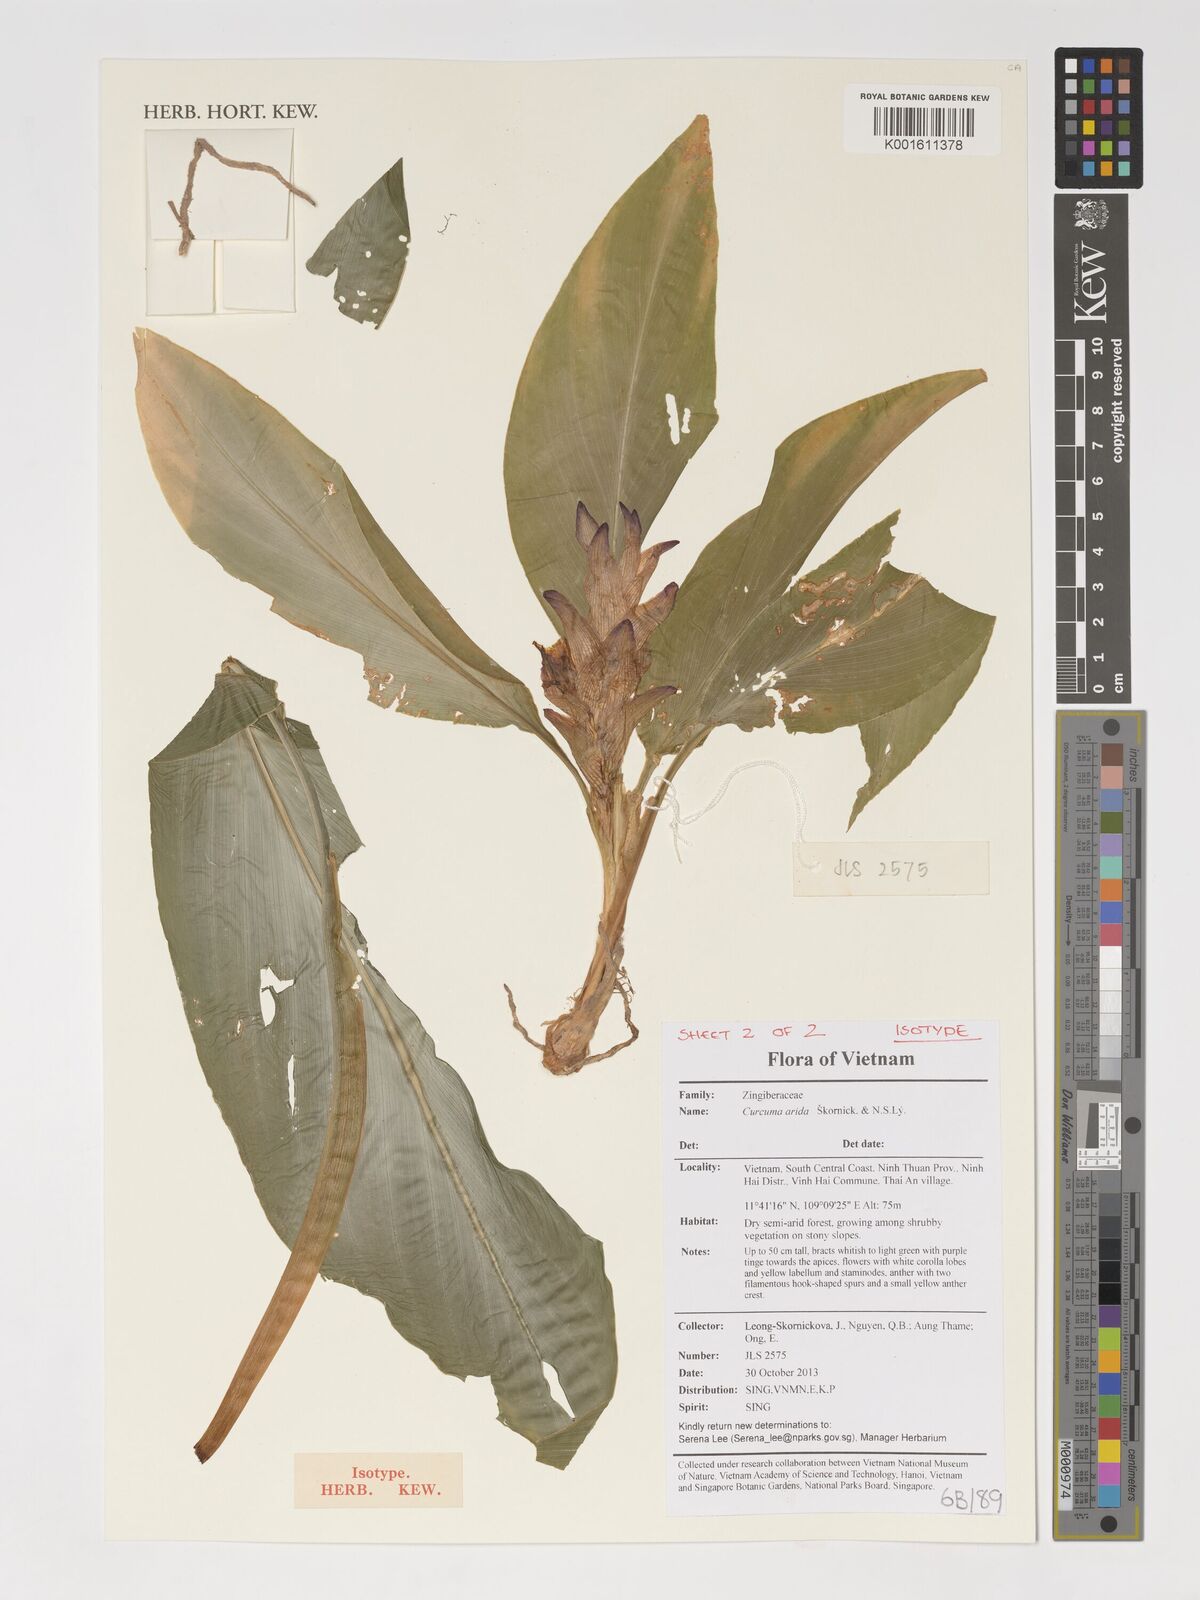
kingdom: Plantae
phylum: Tracheophyta
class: Liliopsida
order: Zingiberales
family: Zingiberaceae
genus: Curcuma
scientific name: Curcuma arida
